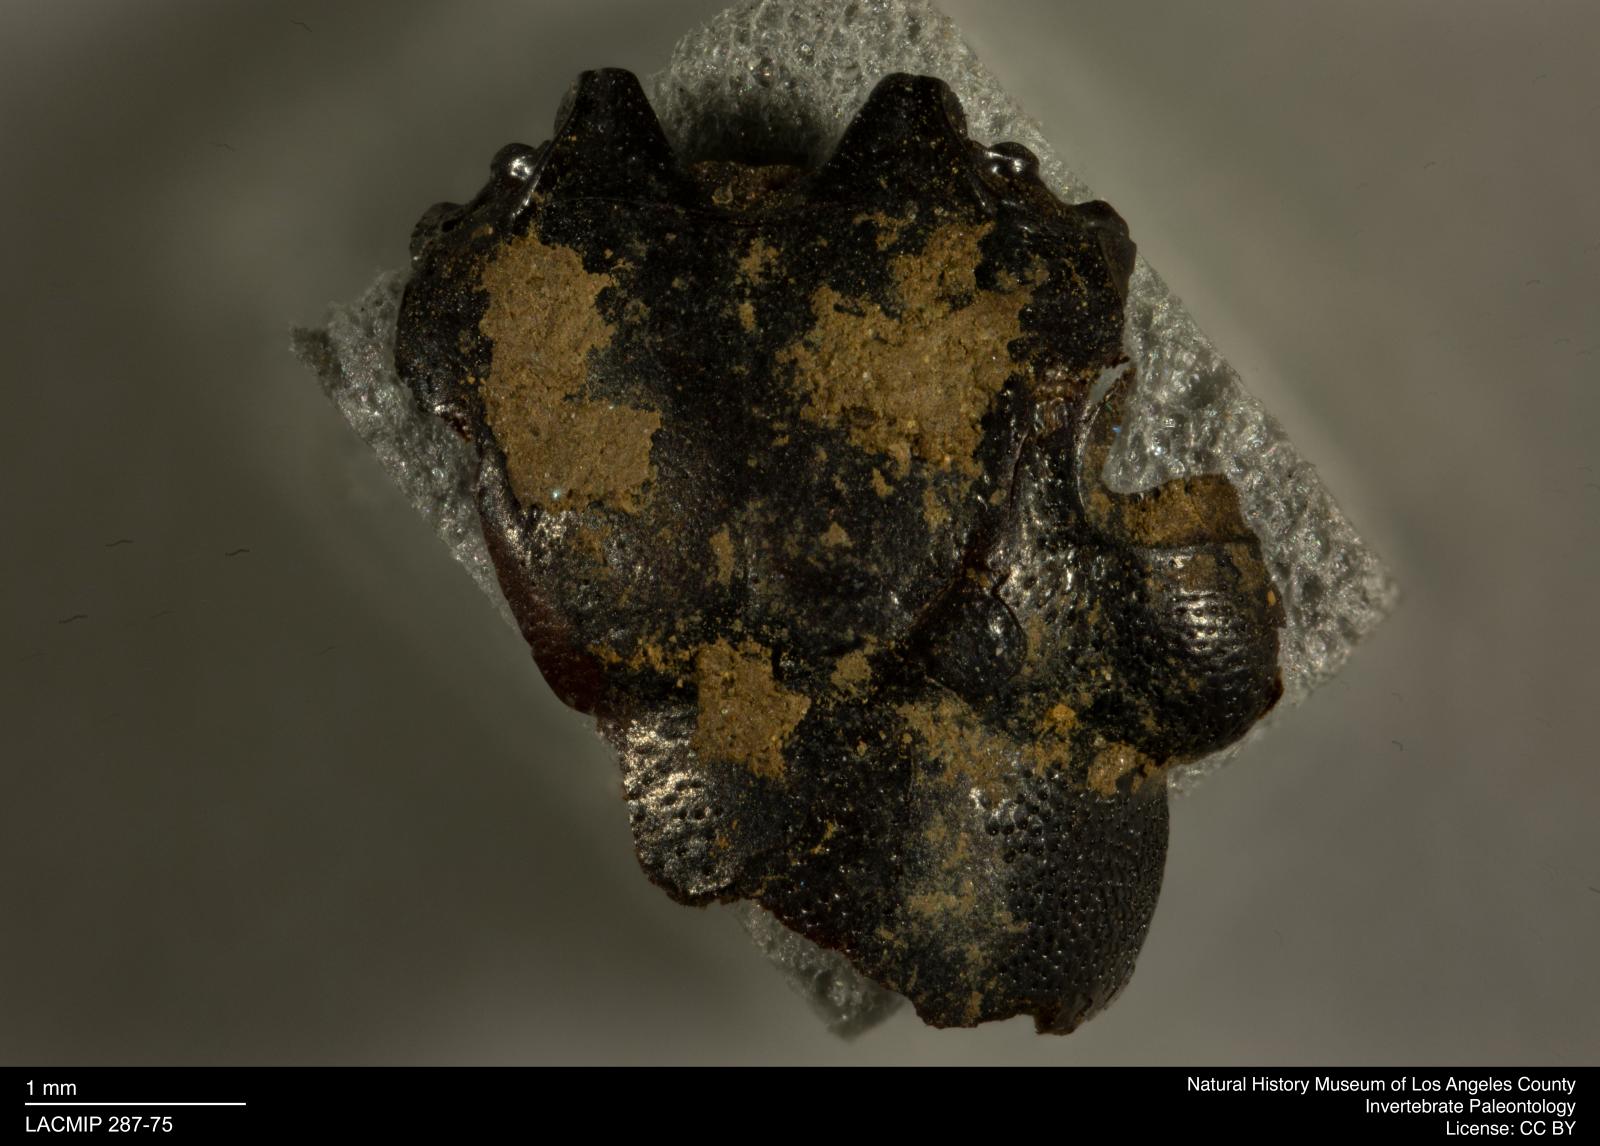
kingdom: Animalia
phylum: Arthropoda
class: Insecta
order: Coleoptera
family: Staphylinidae
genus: Nicrophorus
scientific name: Nicrophorus marginatus
